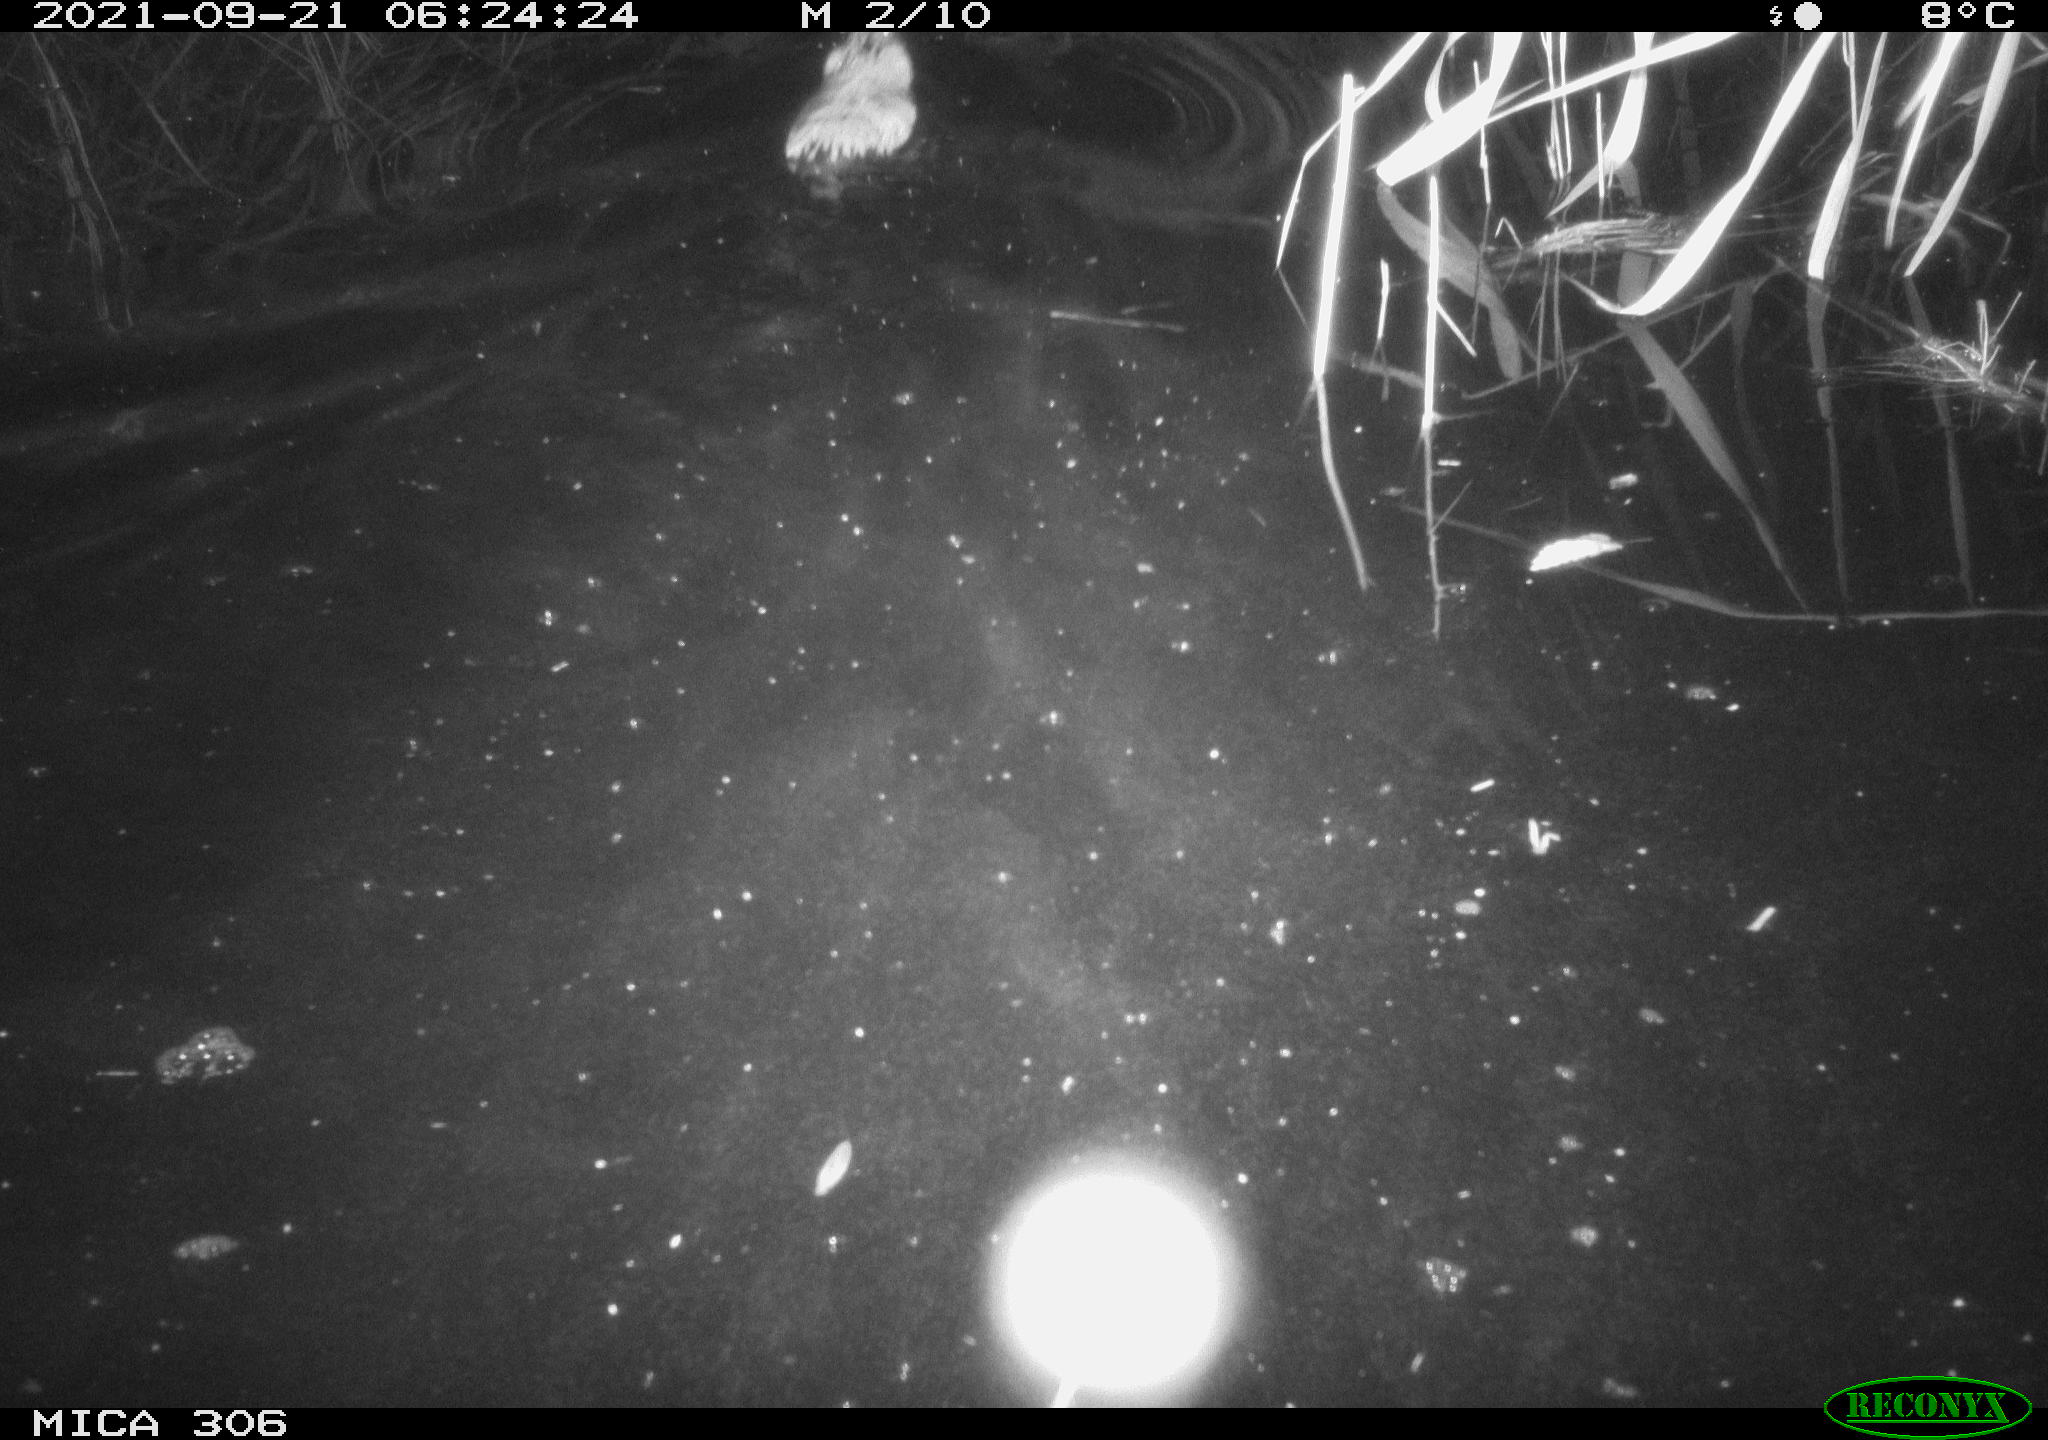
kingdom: Animalia
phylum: Chordata
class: Mammalia
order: Rodentia
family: Cricetidae
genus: Ondatra
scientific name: Ondatra zibethicus
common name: Muskrat
